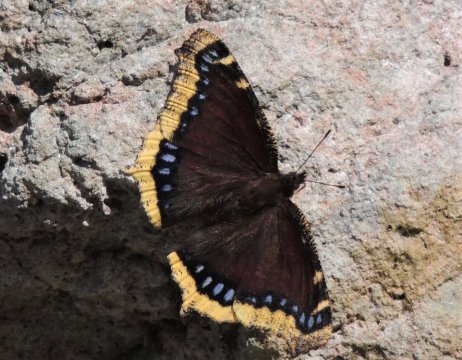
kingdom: Animalia
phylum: Arthropoda
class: Insecta
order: Lepidoptera
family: Nymphalidae
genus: Nymphalis
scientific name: Nymphalis antiopa
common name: Mourning Cloak
